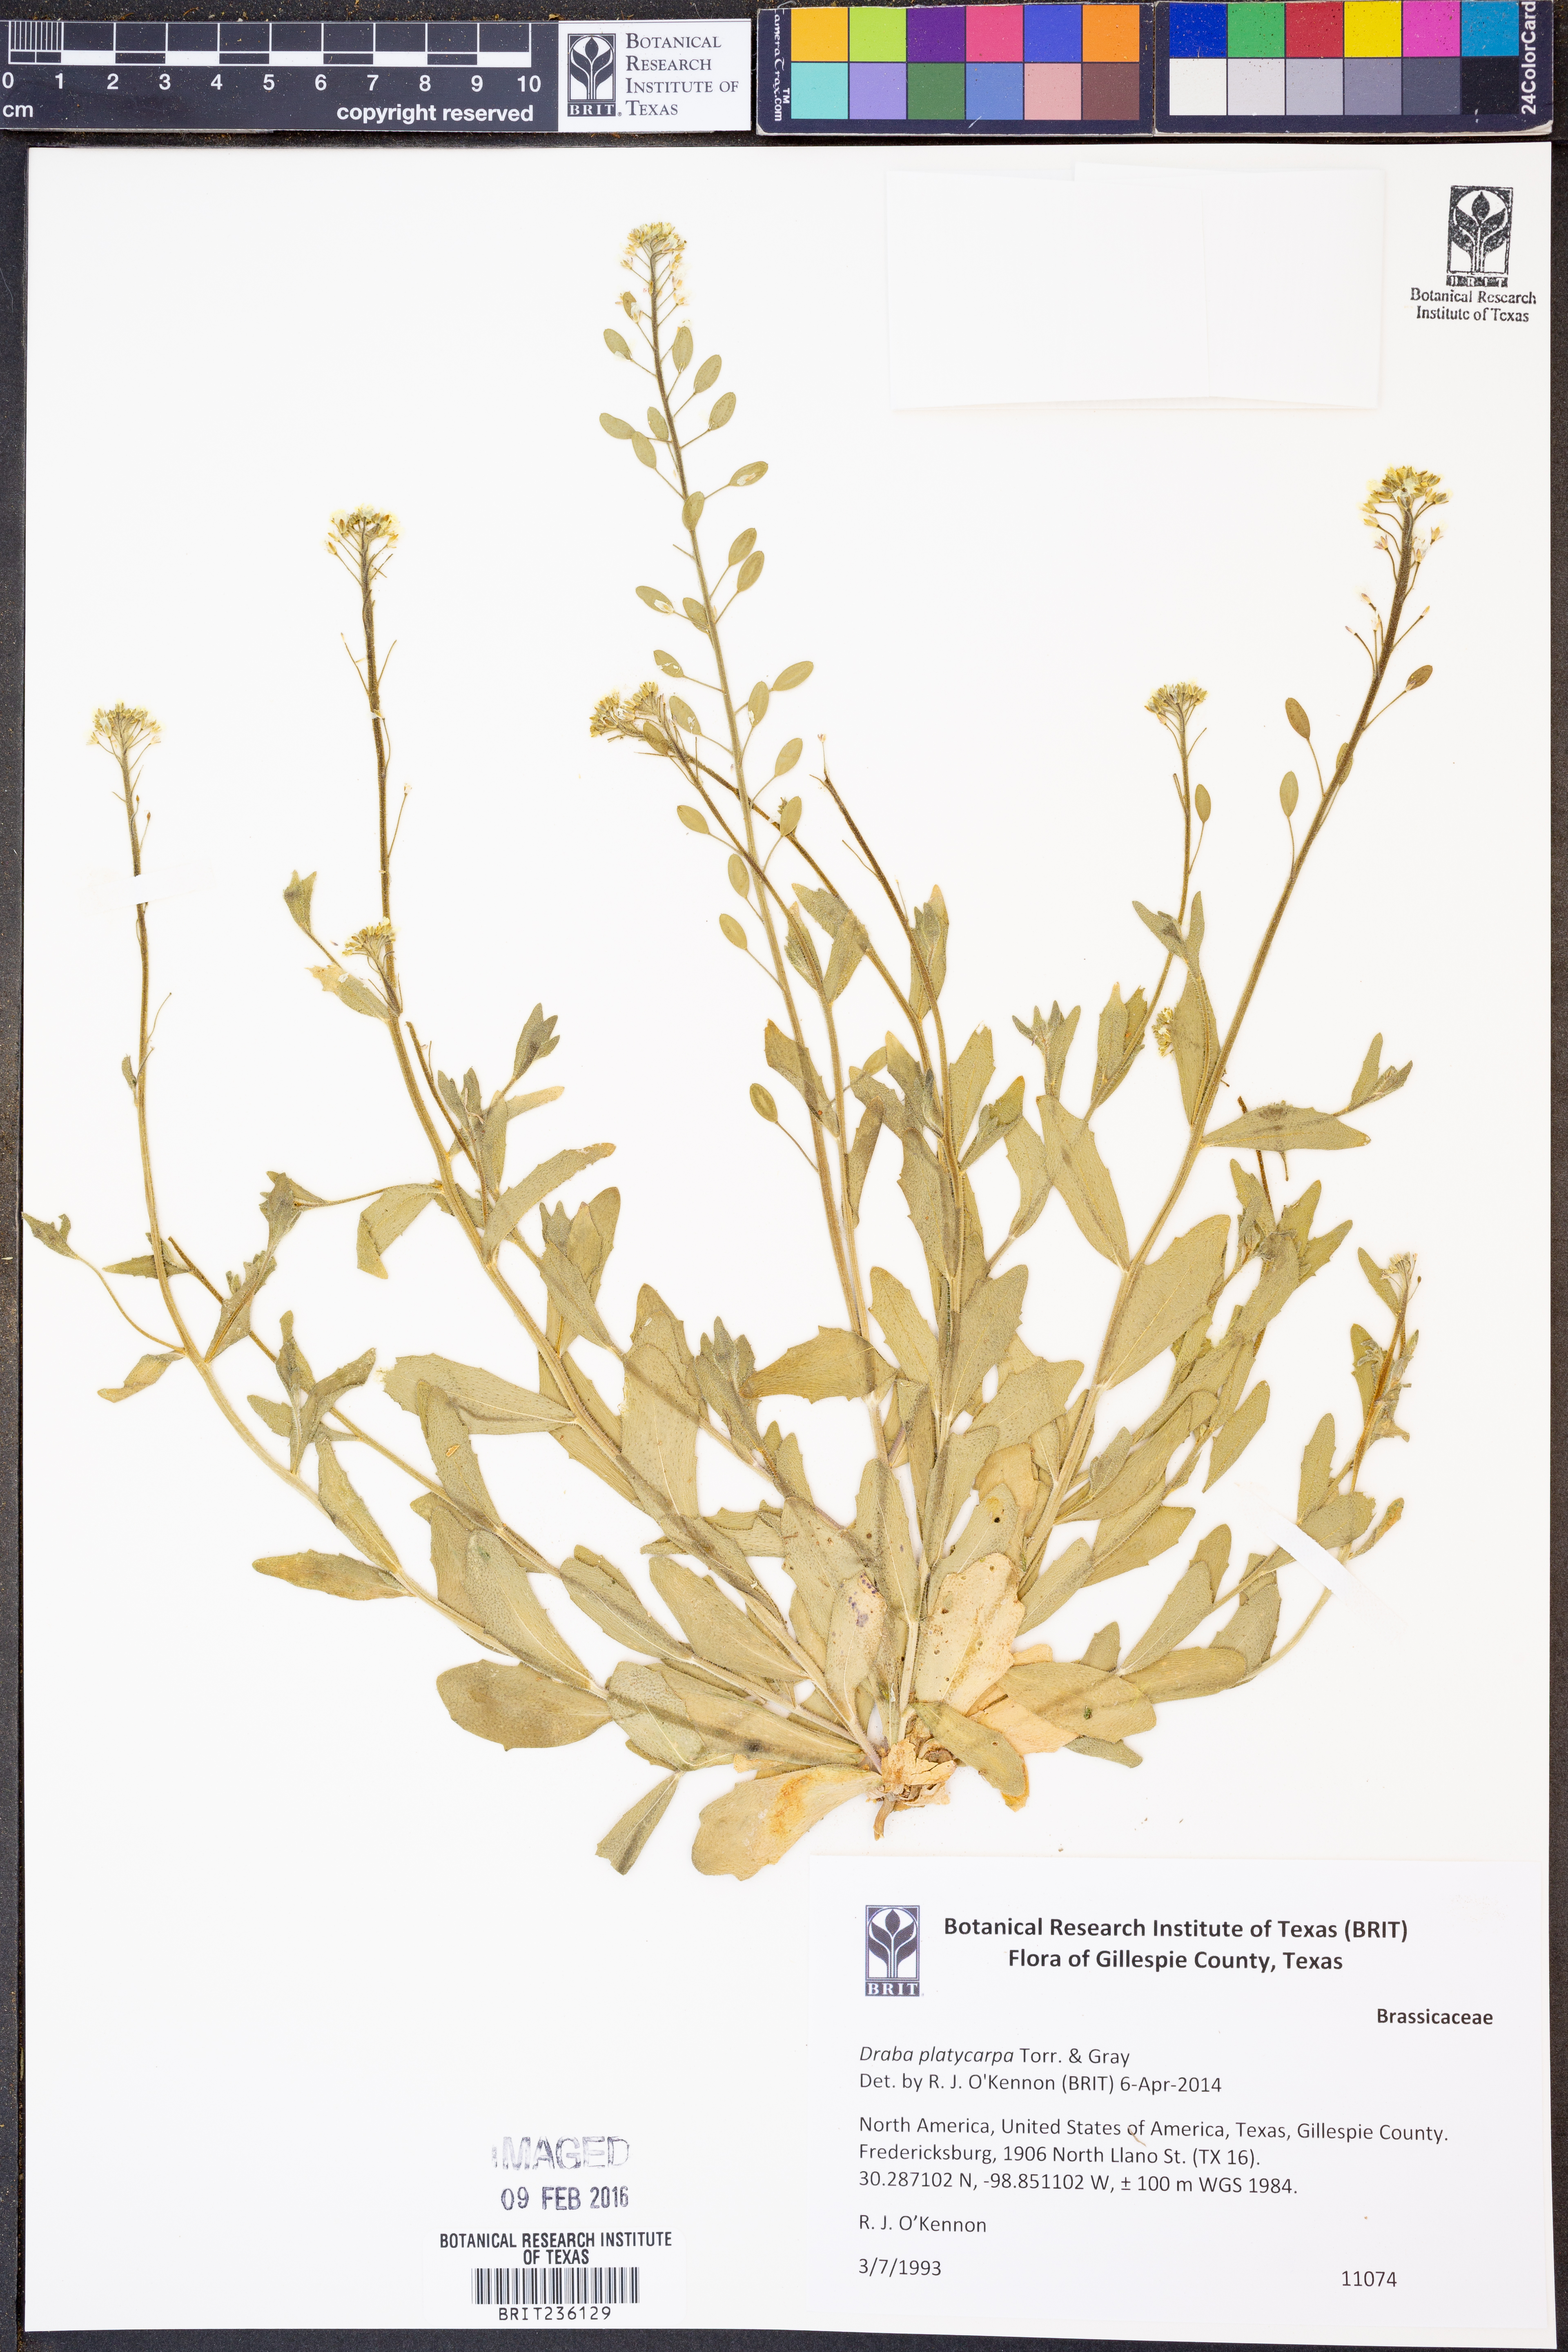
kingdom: Plantae
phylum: Tracheophyta
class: Magnoliopsida
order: Brassicales
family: Brassicaceae
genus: Tomostima
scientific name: Tomostima platycarpa
